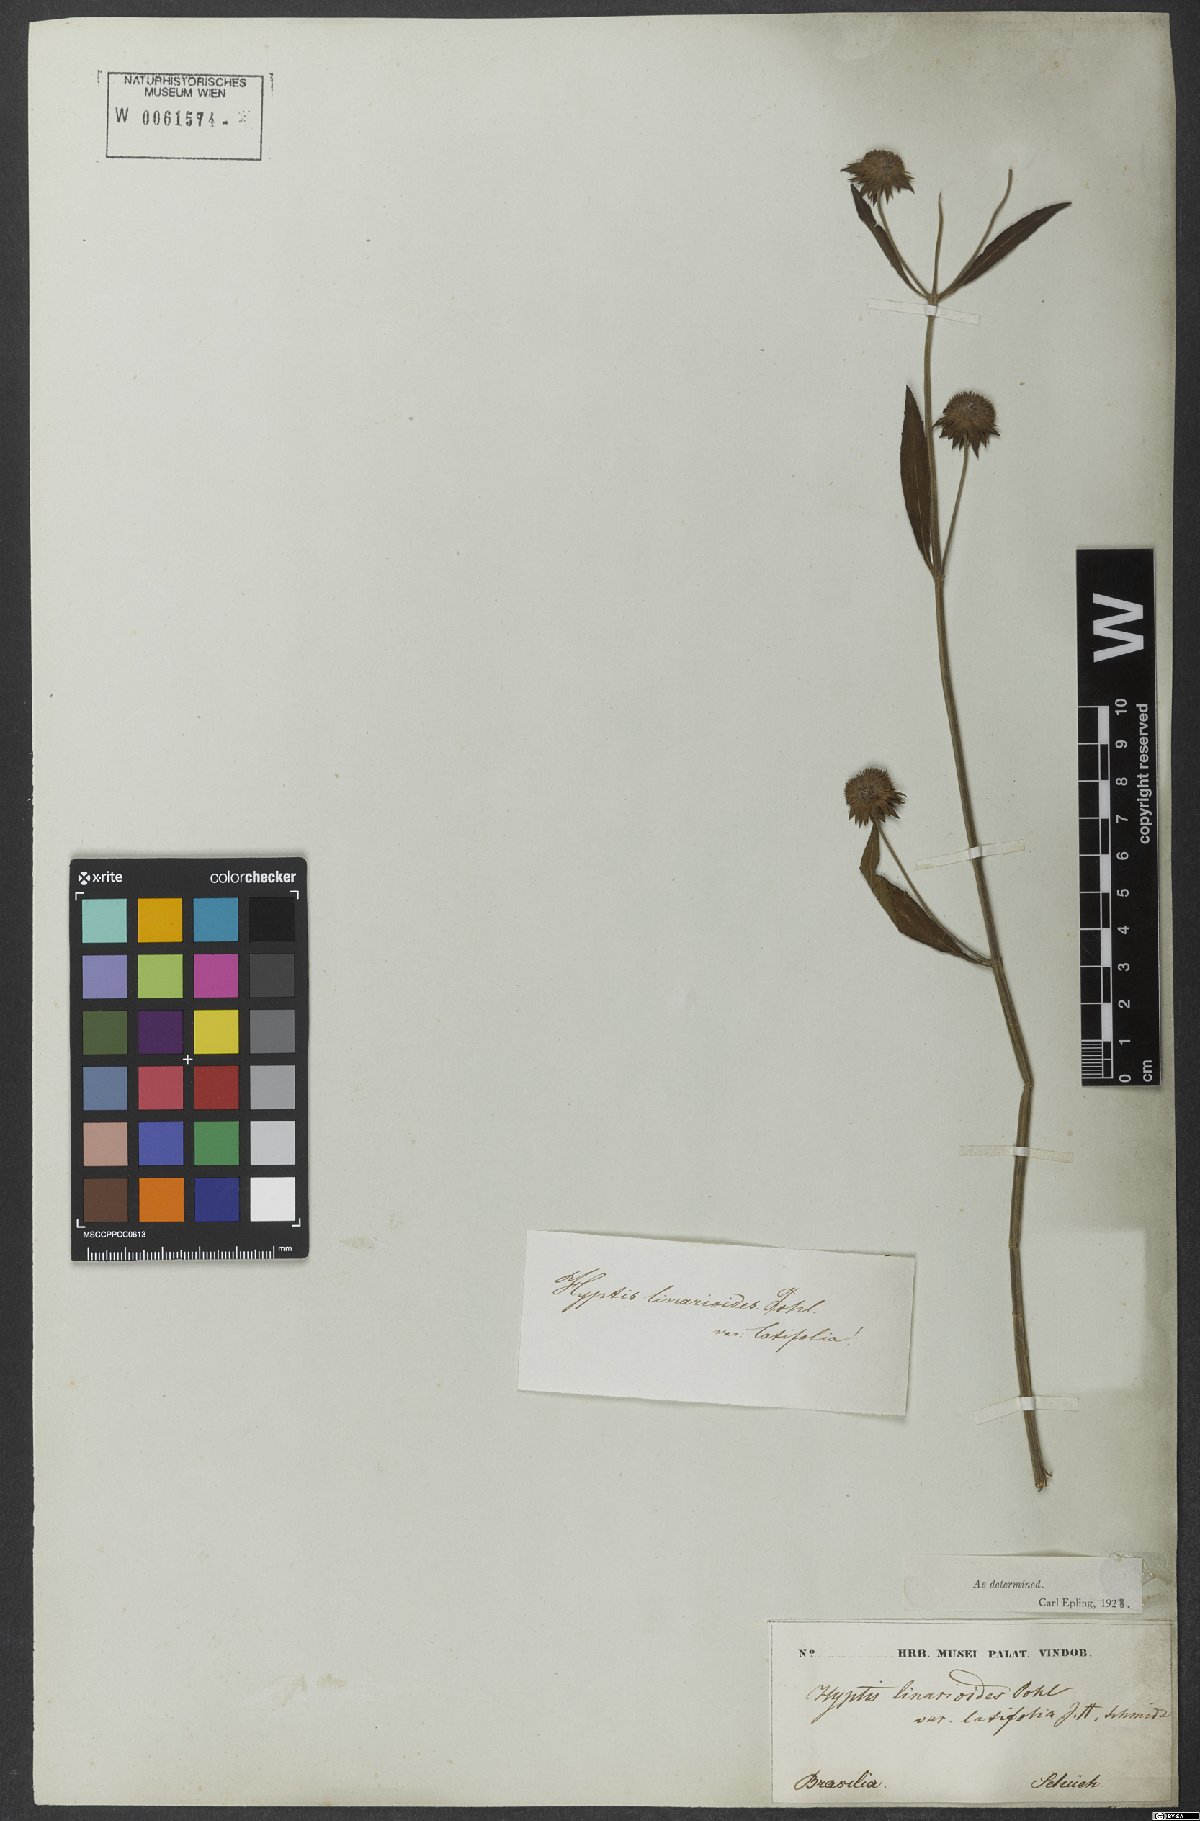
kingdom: Plantae
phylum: Tracheophyta
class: Magnoliopsida
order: Lamiales
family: Lamiaceae
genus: Hyptis
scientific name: Hyptis linarioides
